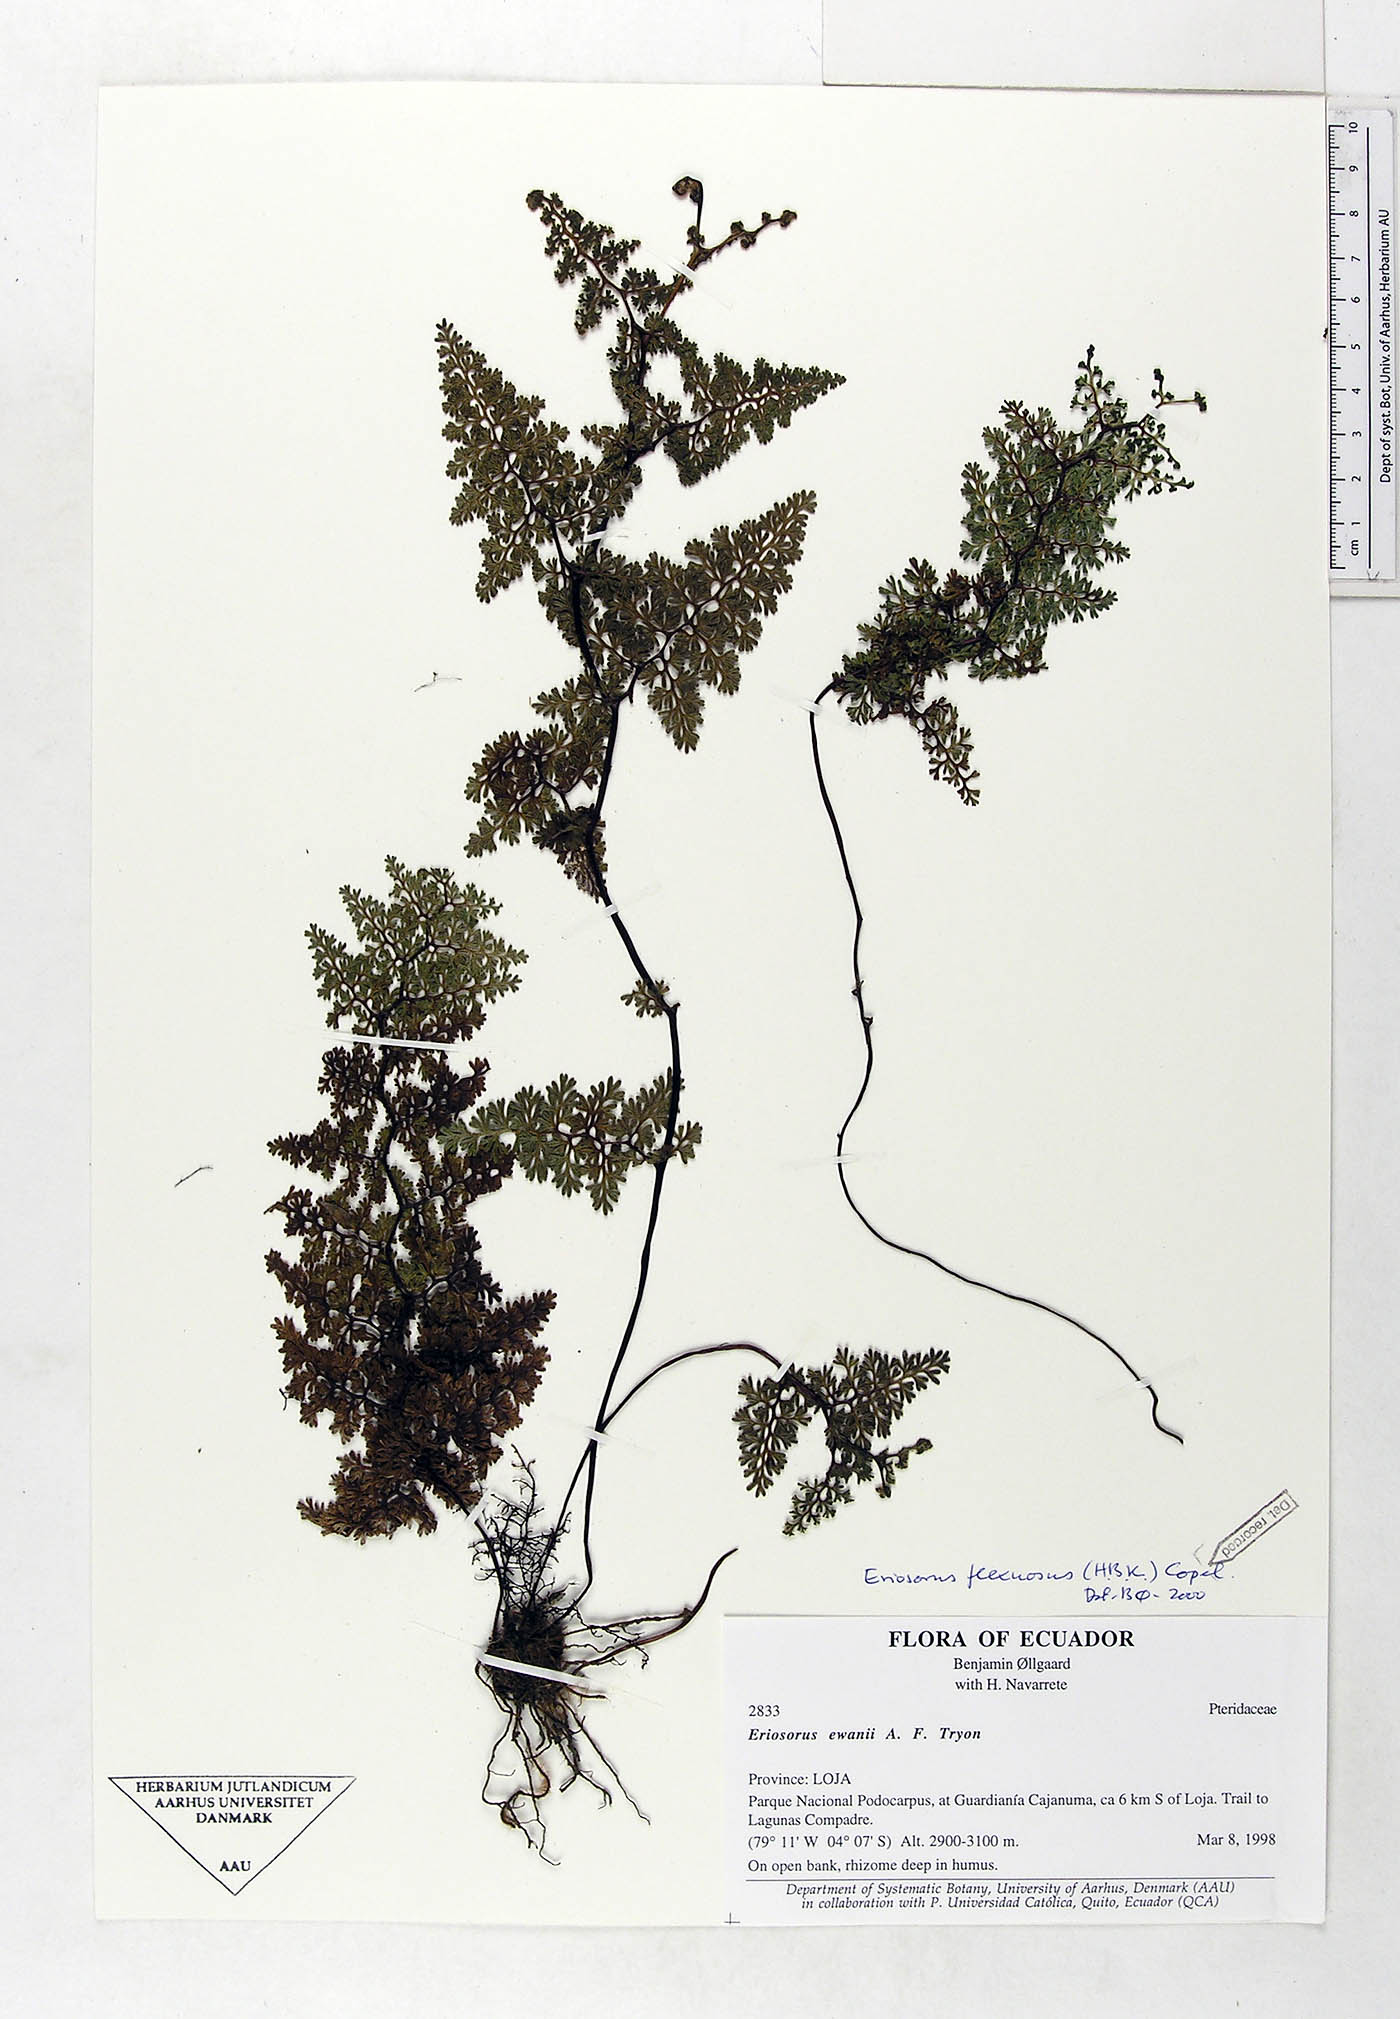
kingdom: Plantae
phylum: Tracheophyta
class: Polypodiopsida
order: Polypodiales
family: Pteridaceae
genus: Jamesonia
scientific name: Jamesonia flexuosa
